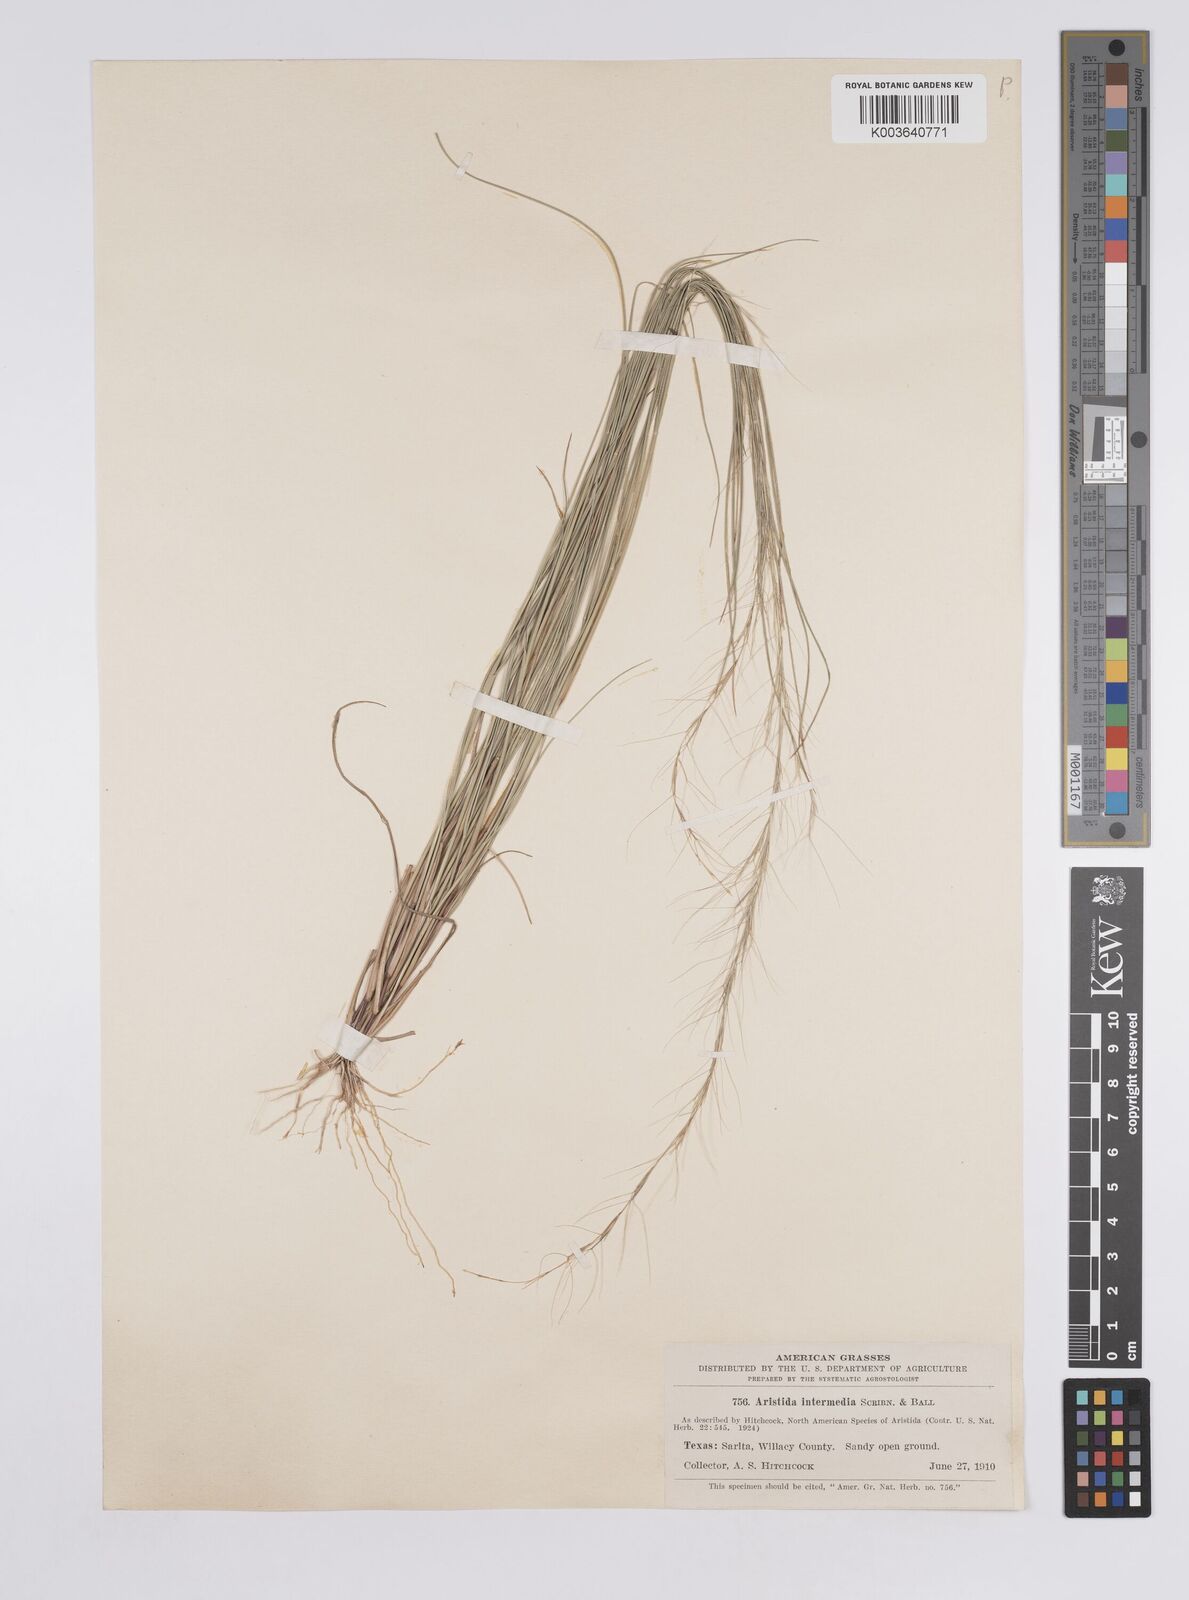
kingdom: Plantae
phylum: Tracheophyta
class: Liliopsida
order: Poales
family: Poaceae
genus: Aristida
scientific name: Aristida adscensionis
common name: Sixweeks threeawn
